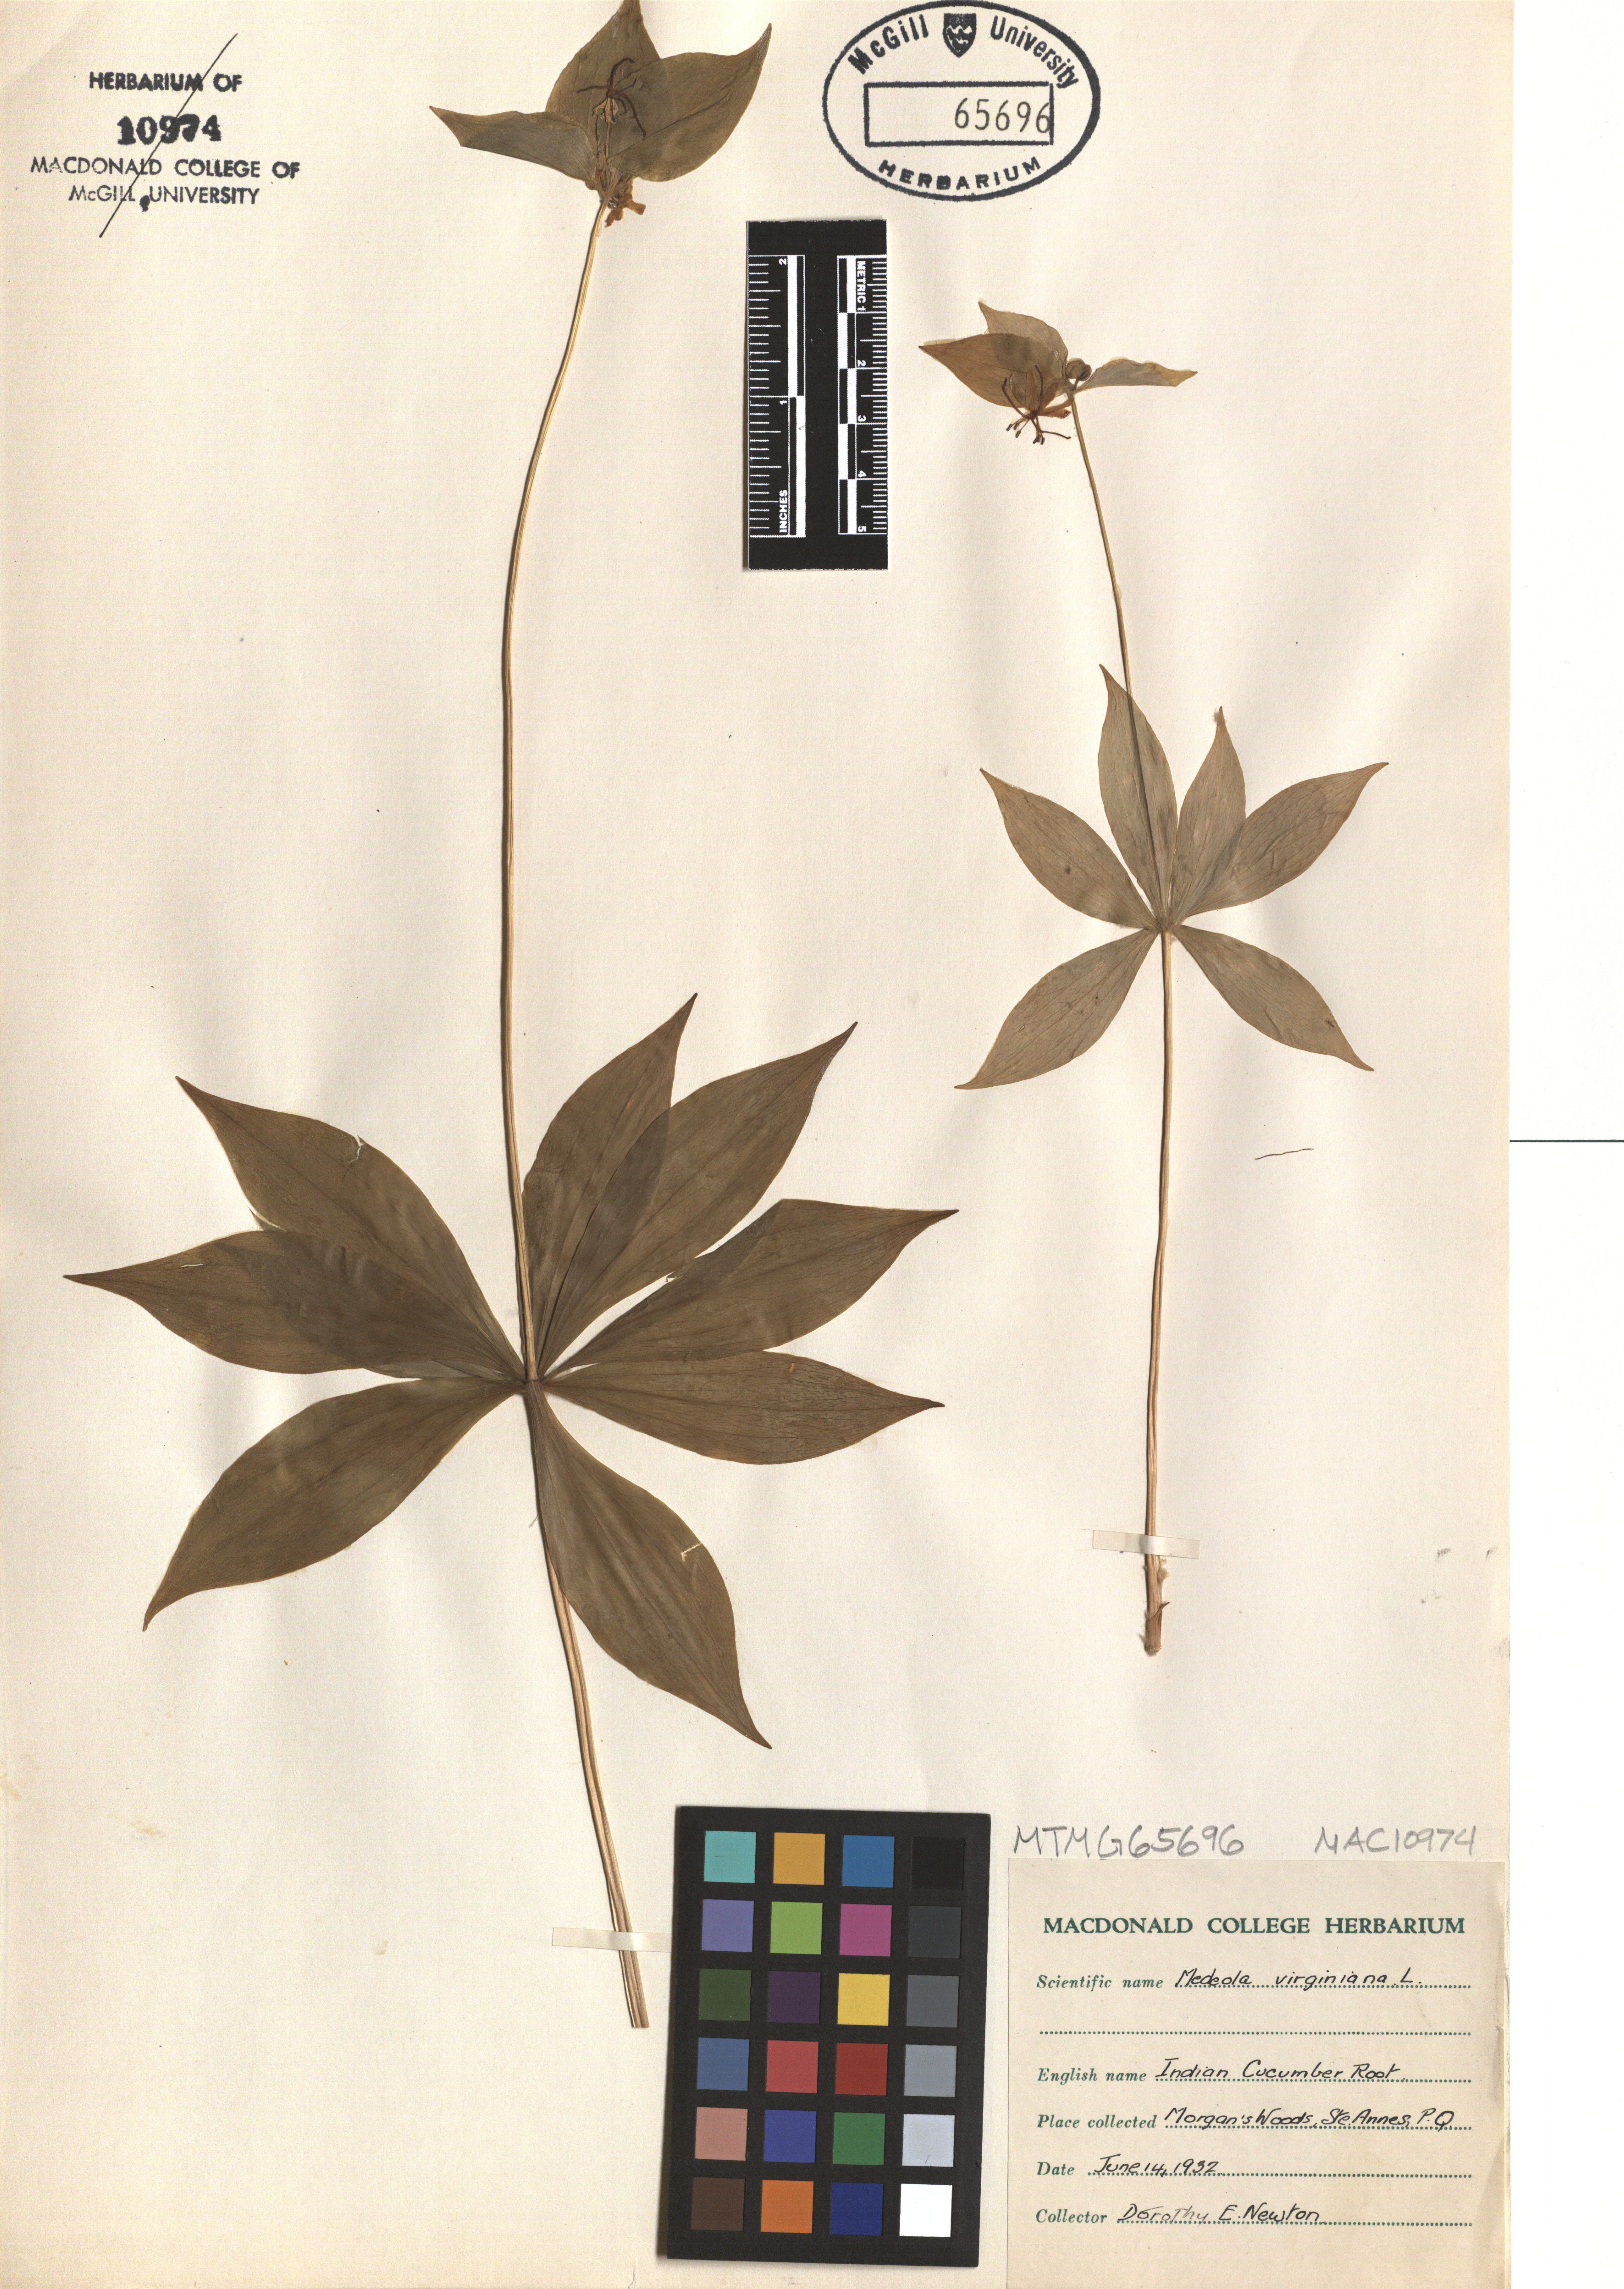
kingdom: Plantae
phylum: Tracheophyta
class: Liliopsida
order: Liliales
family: Liliaceae
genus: Medeola
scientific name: Medeola virginiana
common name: Indian cucumber-root
